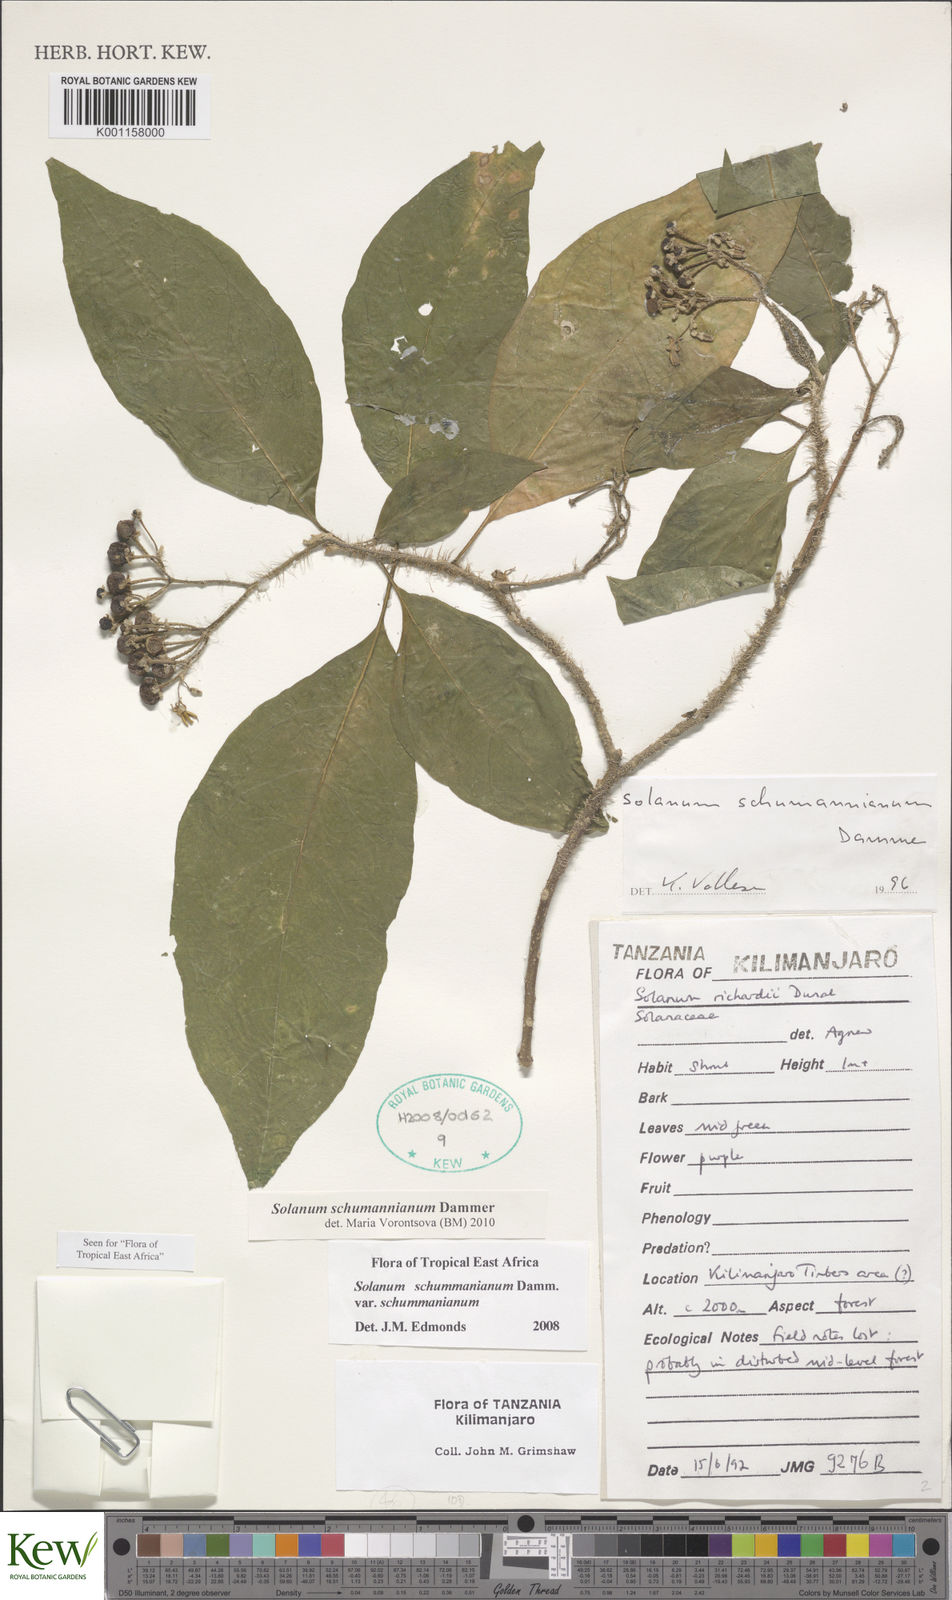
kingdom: Plantae
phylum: Tracheophyta
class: Magnoliopsida
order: Solanales
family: Solanaceae
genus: Solanum
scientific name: Solanum schumannianum
